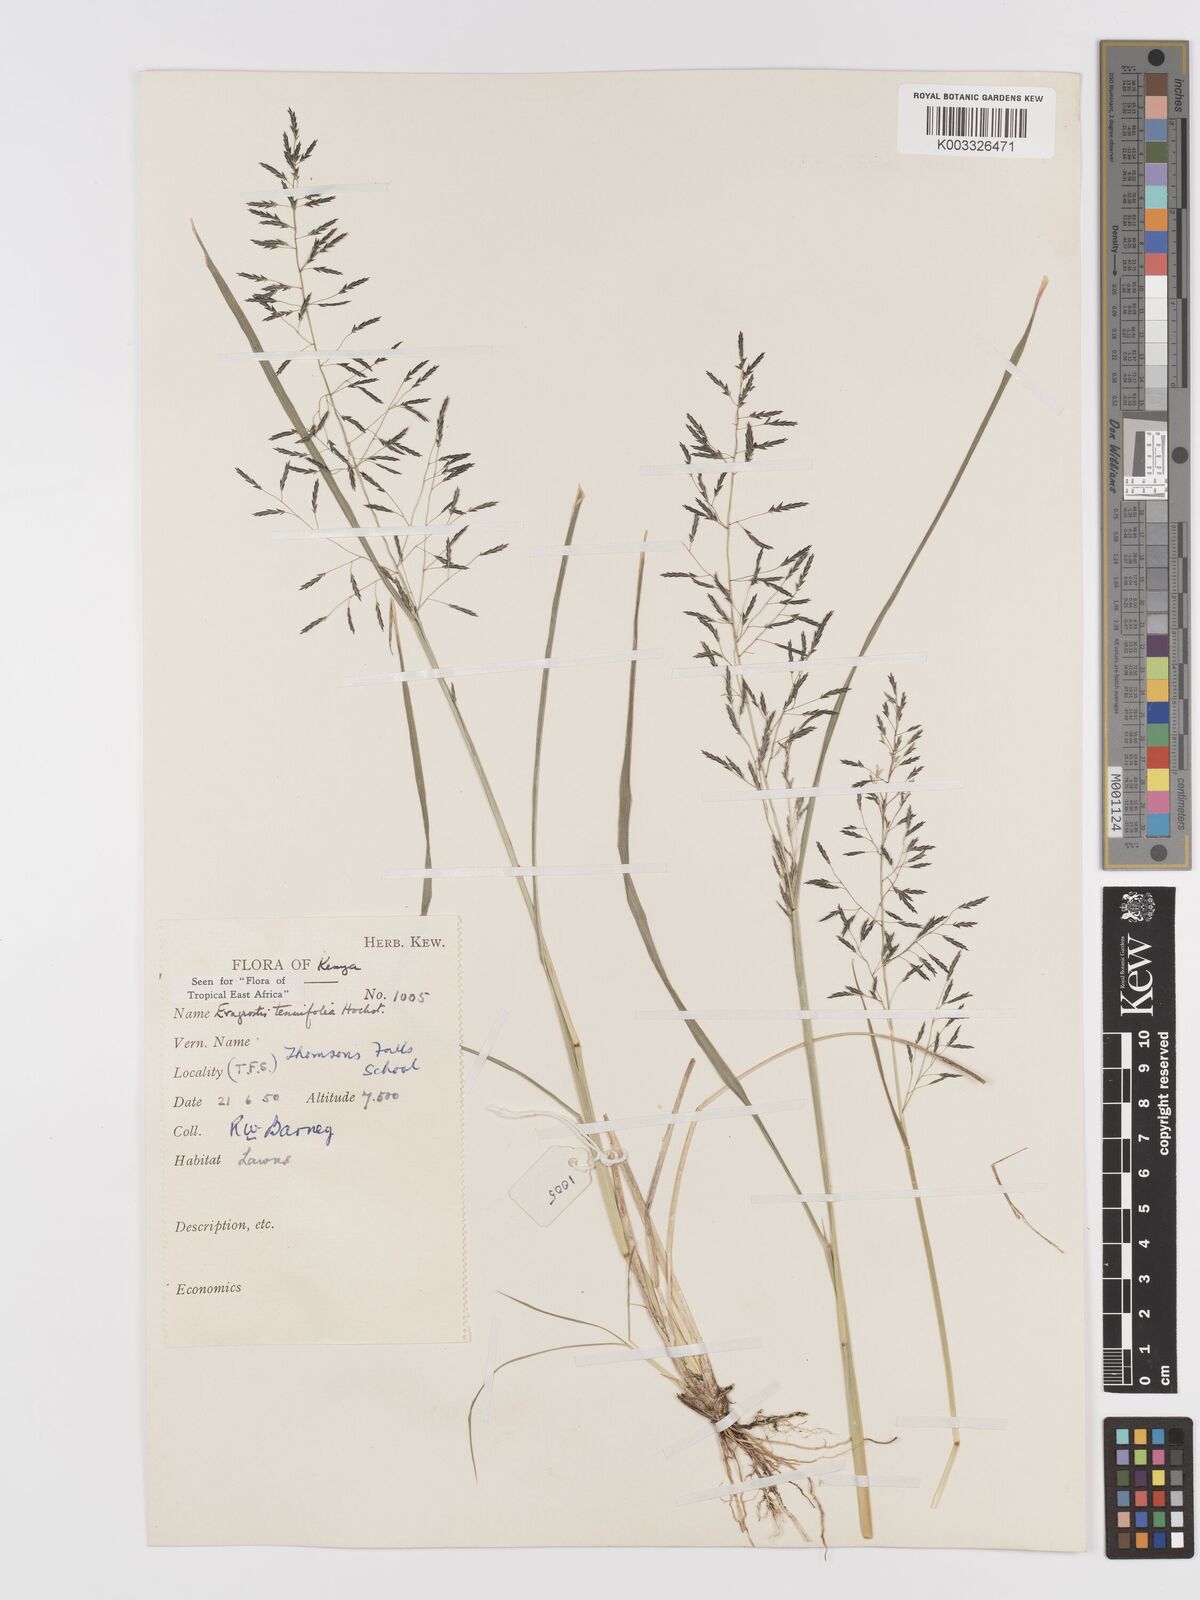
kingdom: Plantae
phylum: Tracheophyta
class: Liliopsida
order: Poales
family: Poaceae
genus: Eragrostis
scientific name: Eragrostis tenuifolia
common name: Elastic grass
